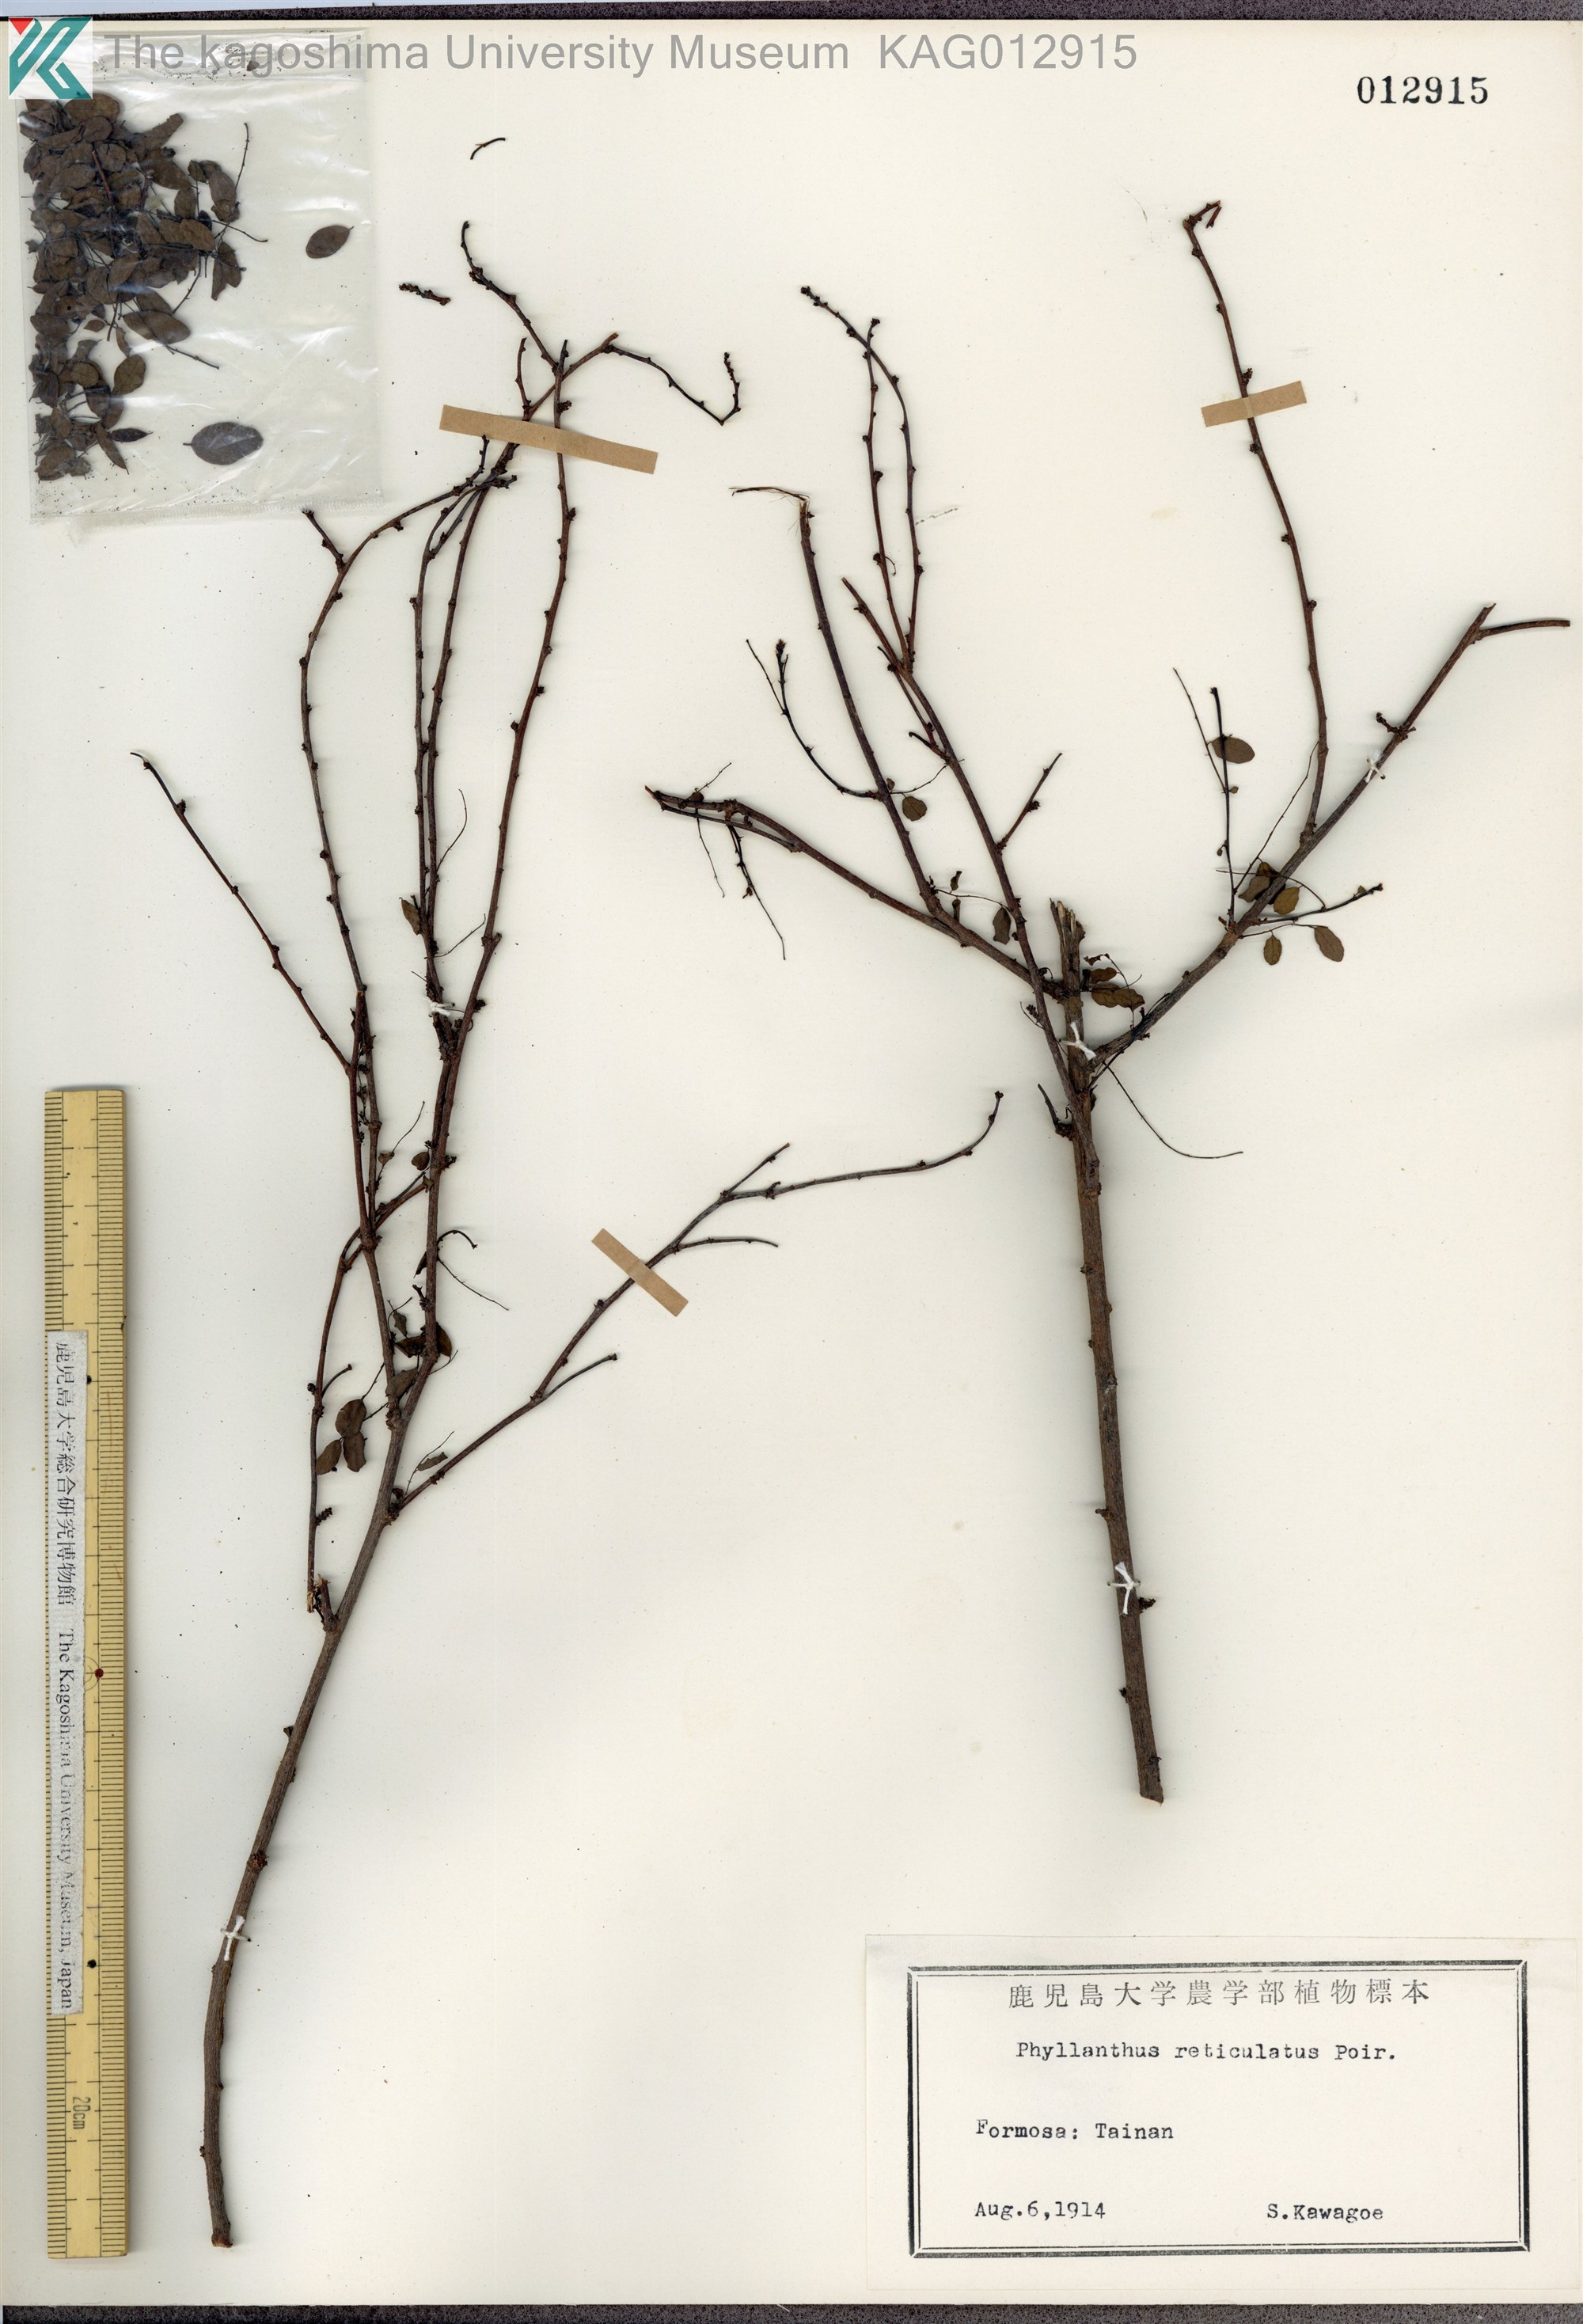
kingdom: Plantae
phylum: Tracheophyta
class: Magnoliopsida
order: Malpighiales
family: Phyllanthaceae
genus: Phyllanthus
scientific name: Phyllanthus reticulatus
